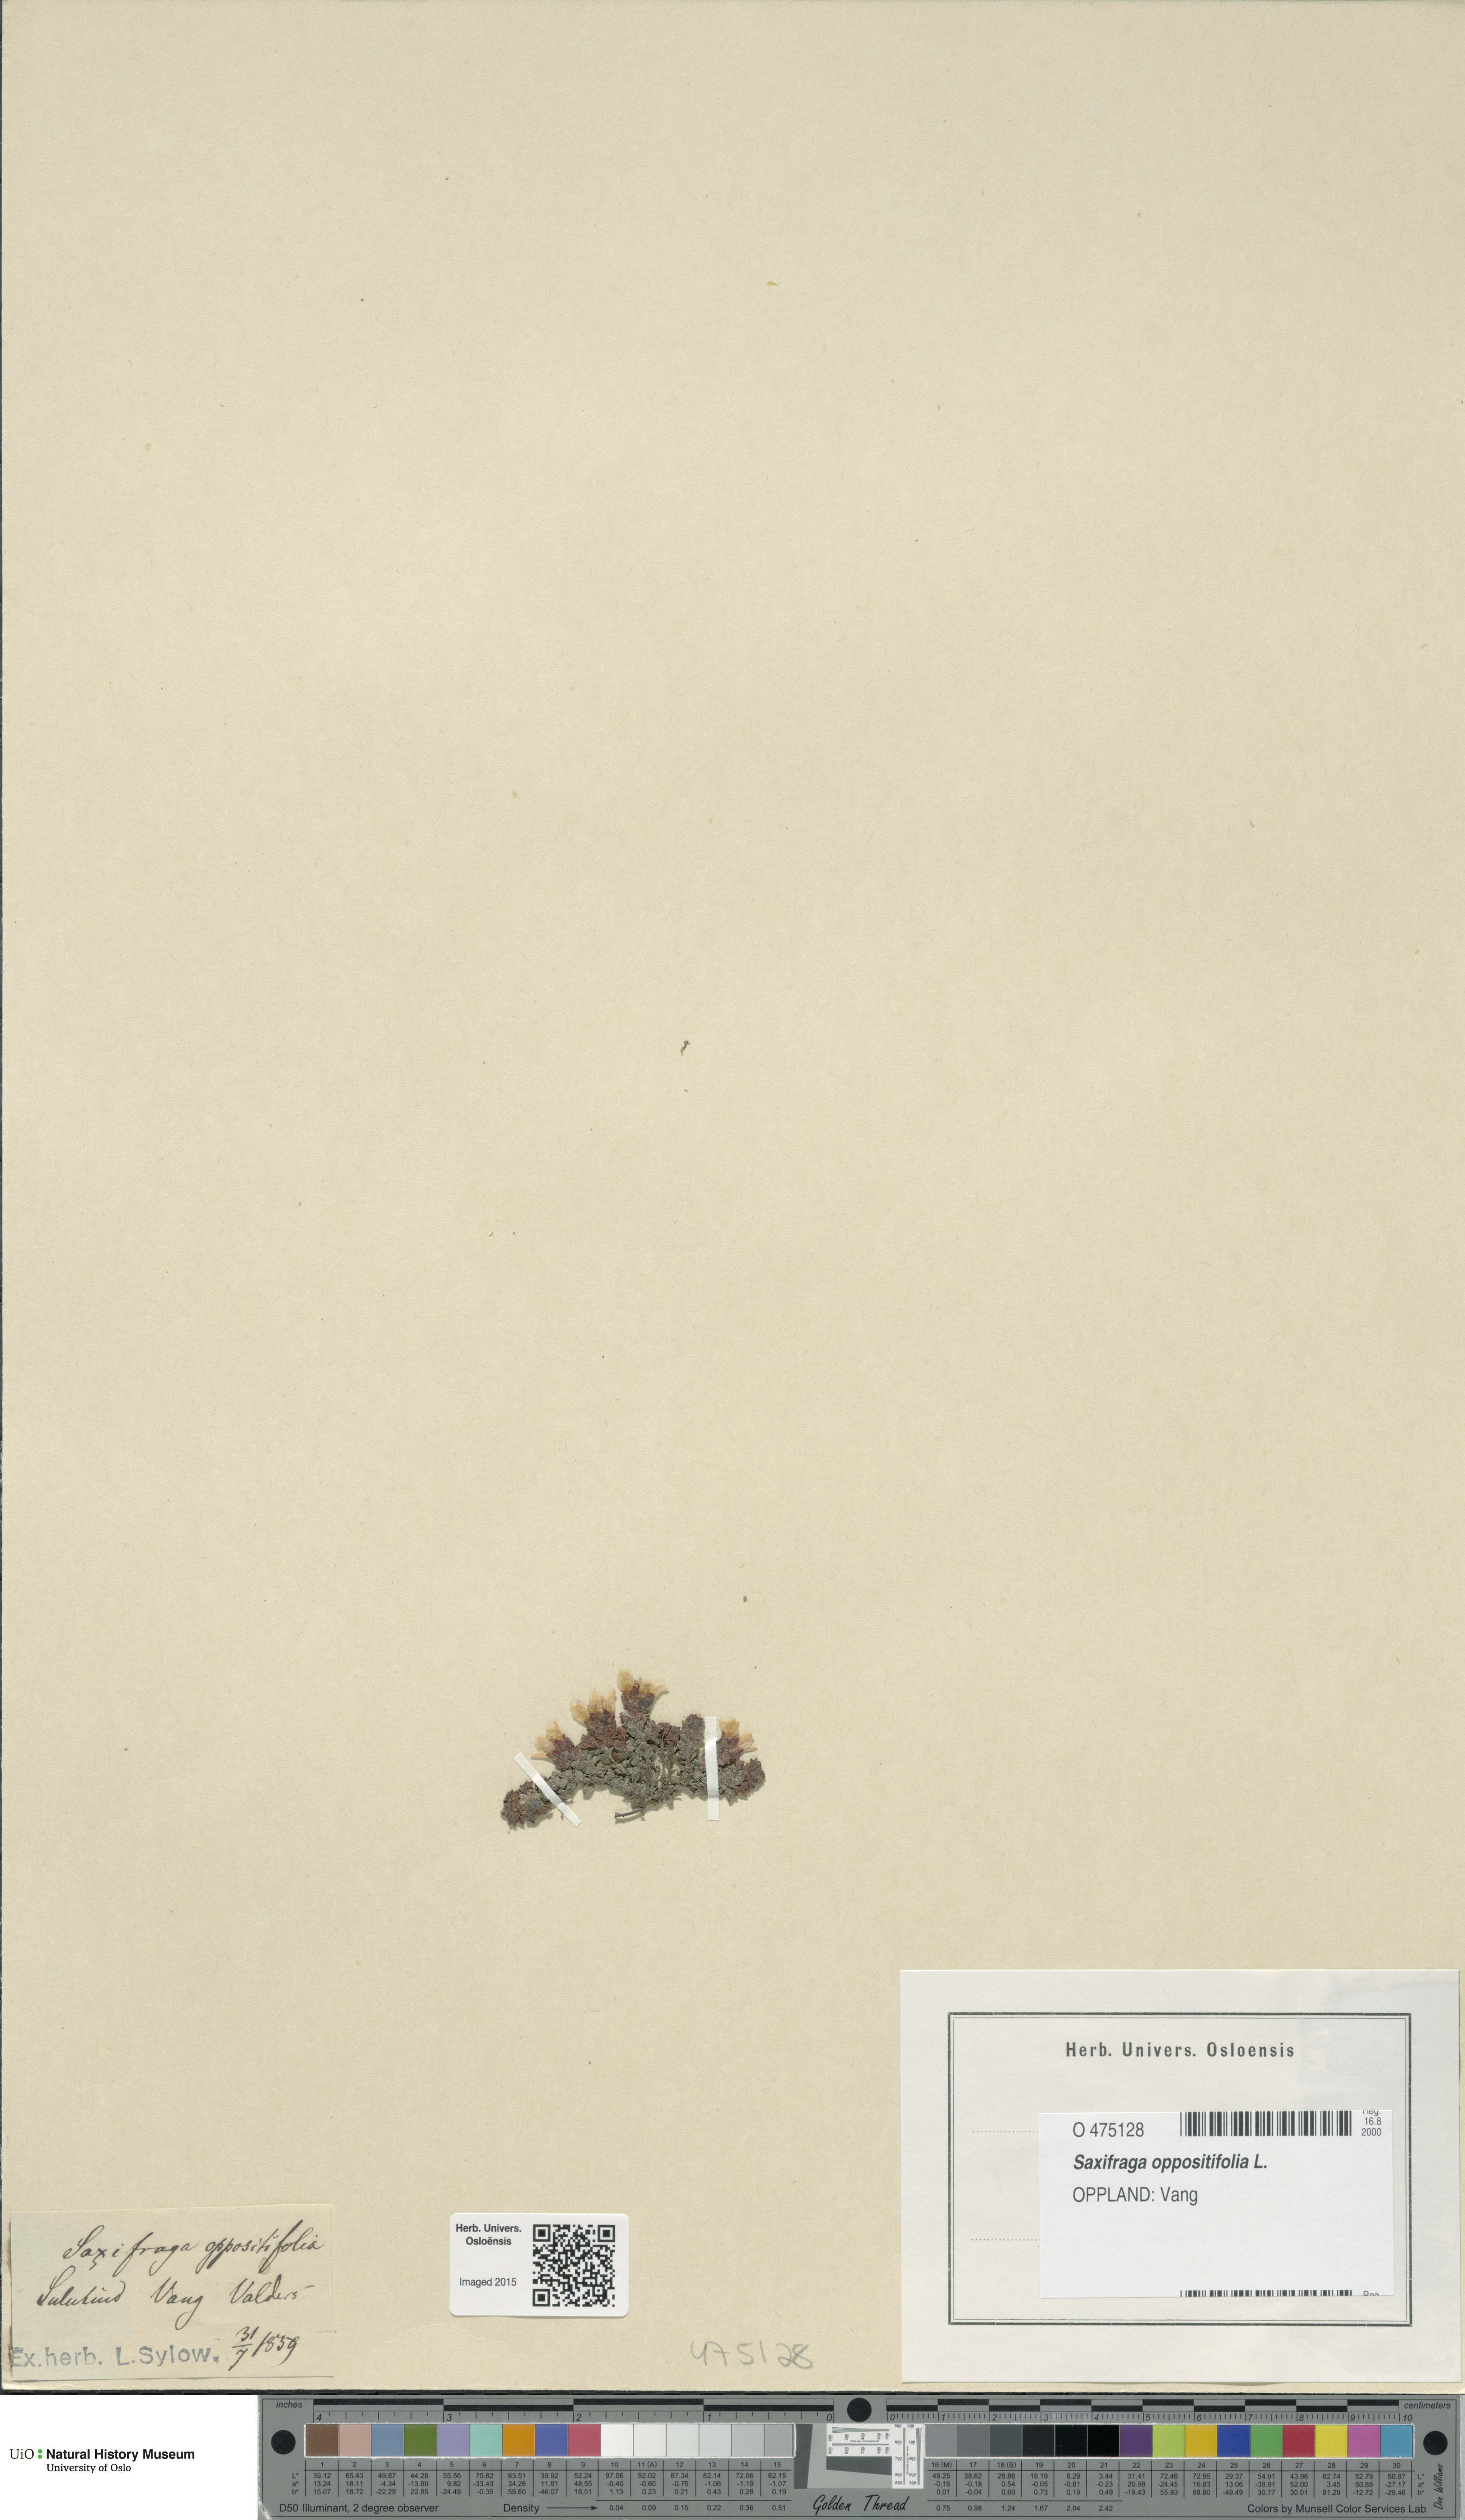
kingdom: Plantae
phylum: Tracheophyta
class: Magnoliopsida
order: Saxifragales
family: Saxifragaceae
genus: Saxifraga
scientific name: Saxifraga oppositifolia
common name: Purple saxifrage
